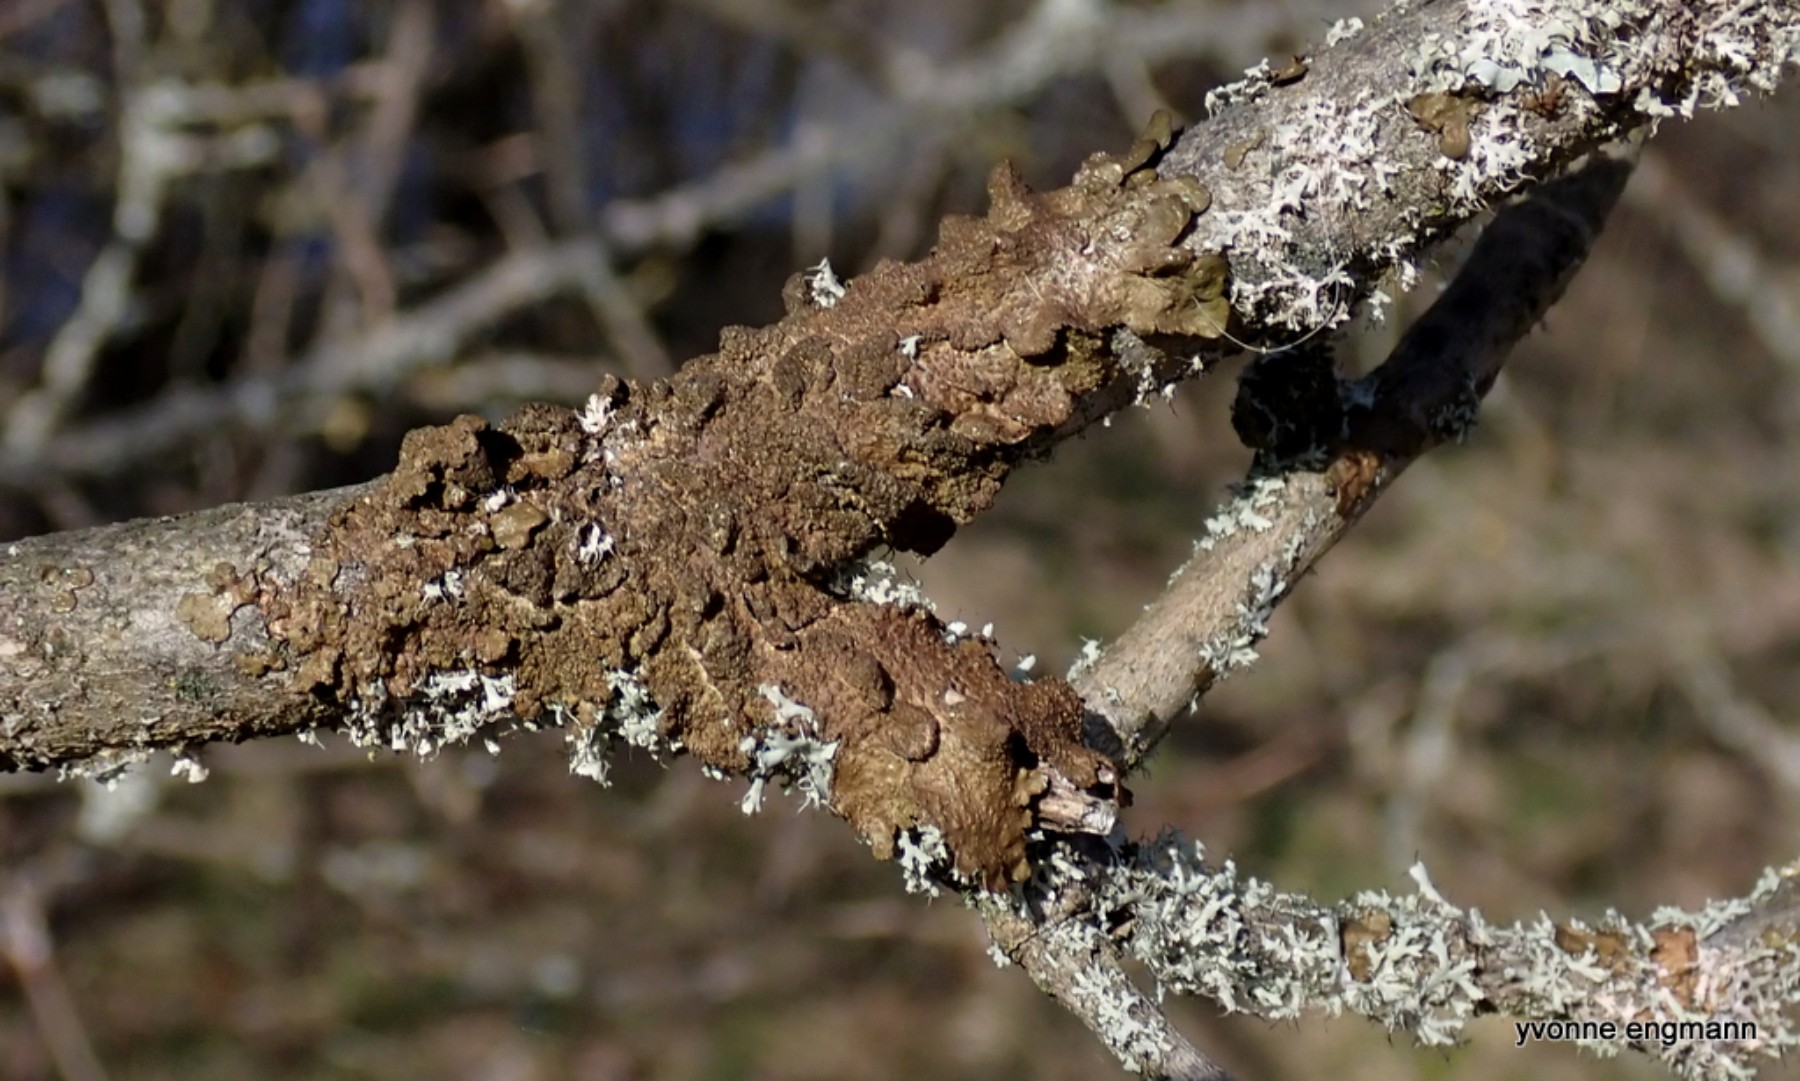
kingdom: Fungi
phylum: Ascomycota
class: Lecanoromycetes
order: Lecanorales
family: Parmeliaceae
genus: Melanelixia
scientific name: Melanelixia subaurifera
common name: guldpudret skållav
